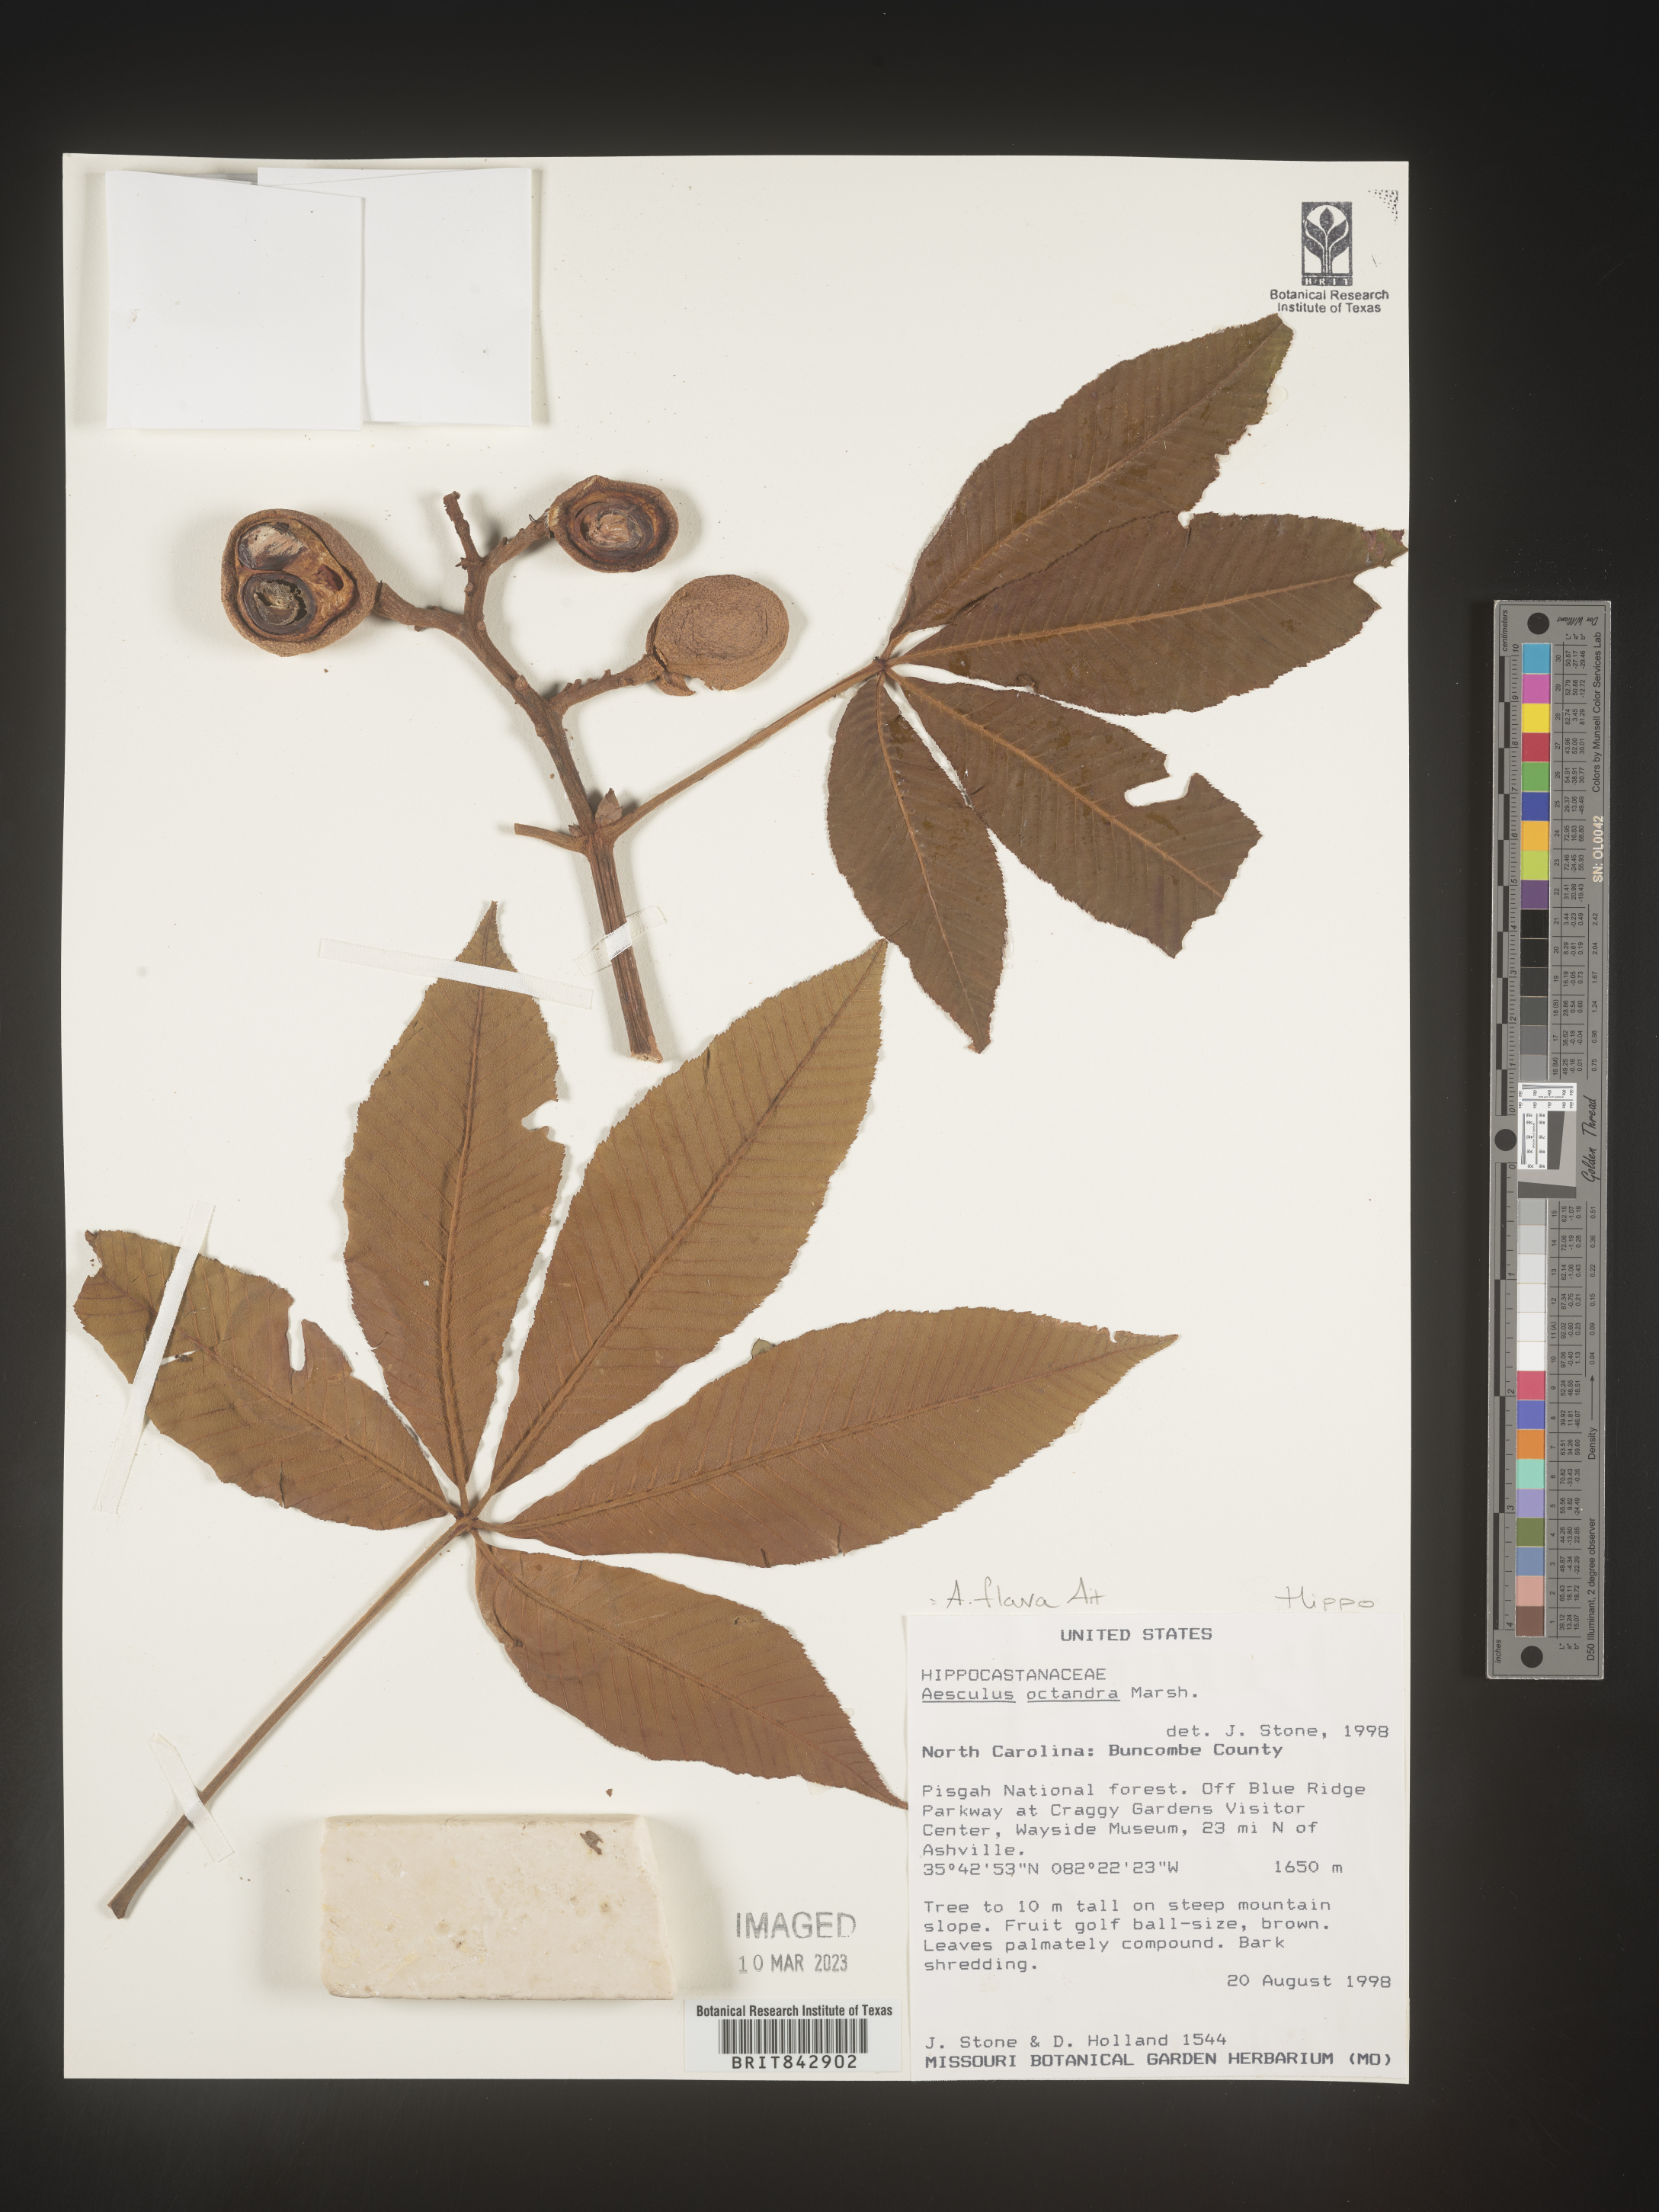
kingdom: Plantae
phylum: Tracheophyta
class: Magnoliopsida
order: Sapindales
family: Sapindaceae
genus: Aesculus
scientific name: Aesculus flava
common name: Yellow buckeye
